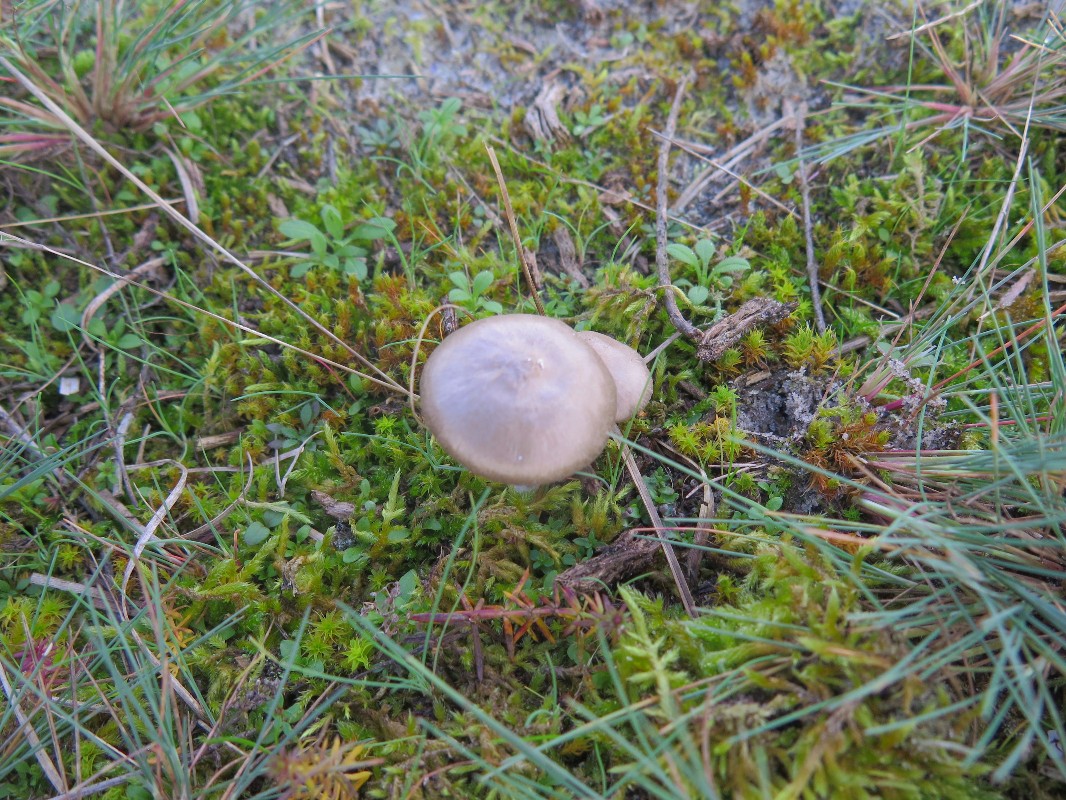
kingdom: Fungi
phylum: Basidiomycota
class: Agaricomycetes
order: Agaricales
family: Entolomataceae
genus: Entoloma
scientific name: Entoloma
